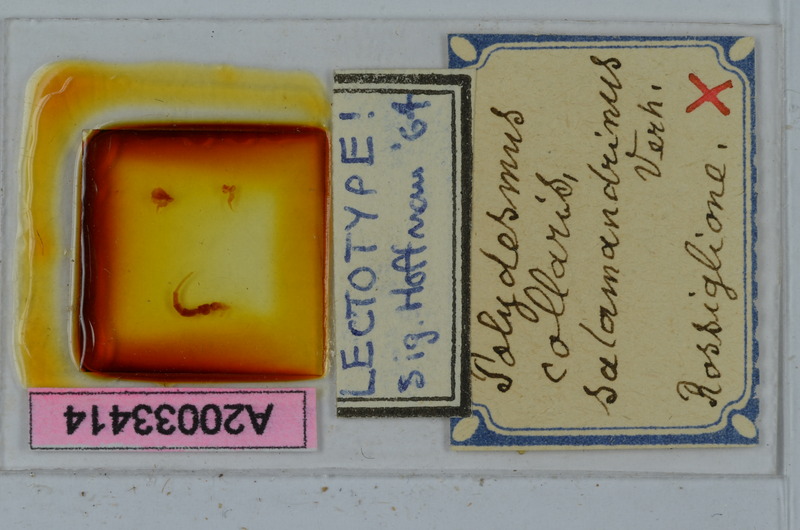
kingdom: Animalia
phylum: Arthropoda
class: Diplopoda
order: Polydesmida
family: Polydesmidae
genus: Polydesmus
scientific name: Polydesmus collaris
